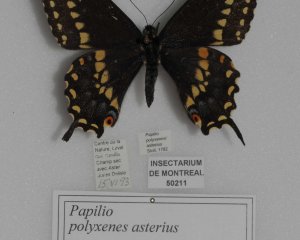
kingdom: Animalia
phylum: Arthropoda
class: Insecta
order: Lepidoptera
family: Papilionidae
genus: Papilio
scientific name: Papilio polyxenes
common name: Black Swallowtail
